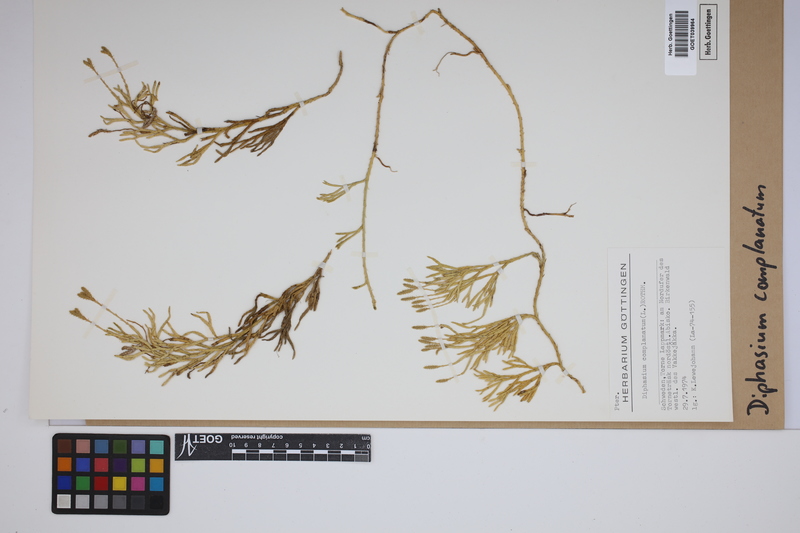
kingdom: Plantae
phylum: Tracheophyta
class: Lycopodiopsida
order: Lycopodiales
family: Lycopodiaceae
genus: Diphasiastrum
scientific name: Diphasiastrum complanatum
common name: Northern running-pine
